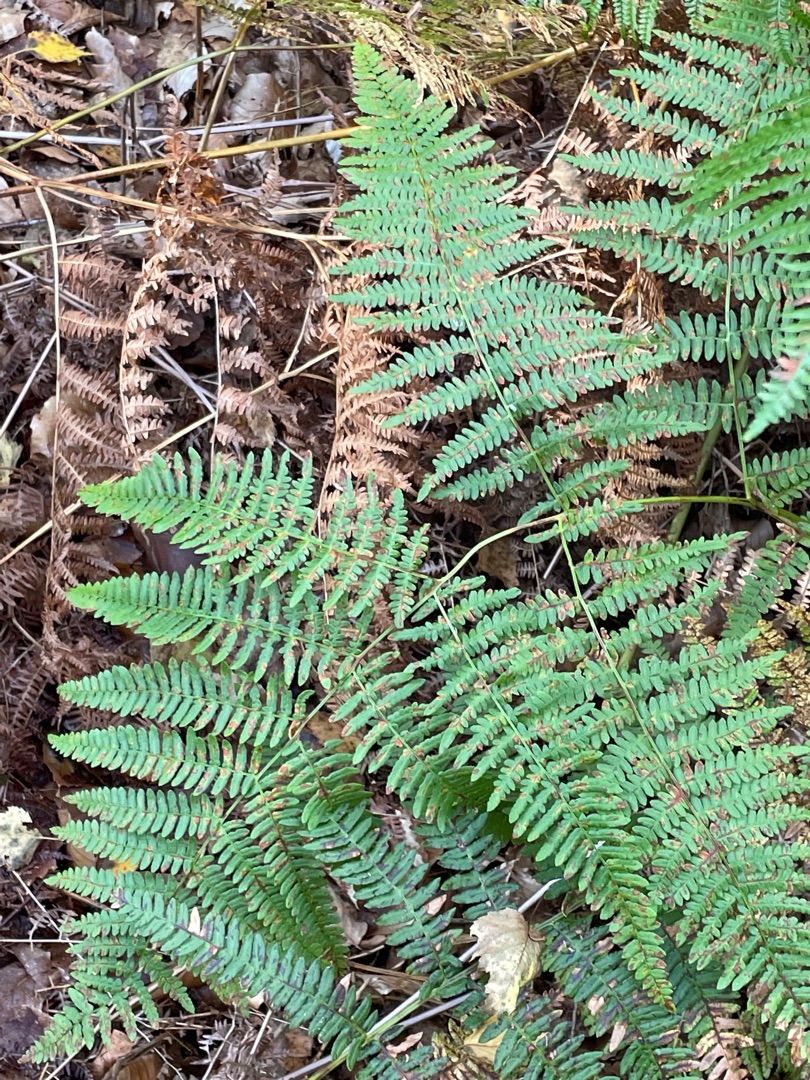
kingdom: Plantae
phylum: Tracheophyta
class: Polypodiopsida
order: Polypodiales
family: Dennstaedtiaceae
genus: Pteridium
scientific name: Pteridium aquilinum
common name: Ørnebregne
